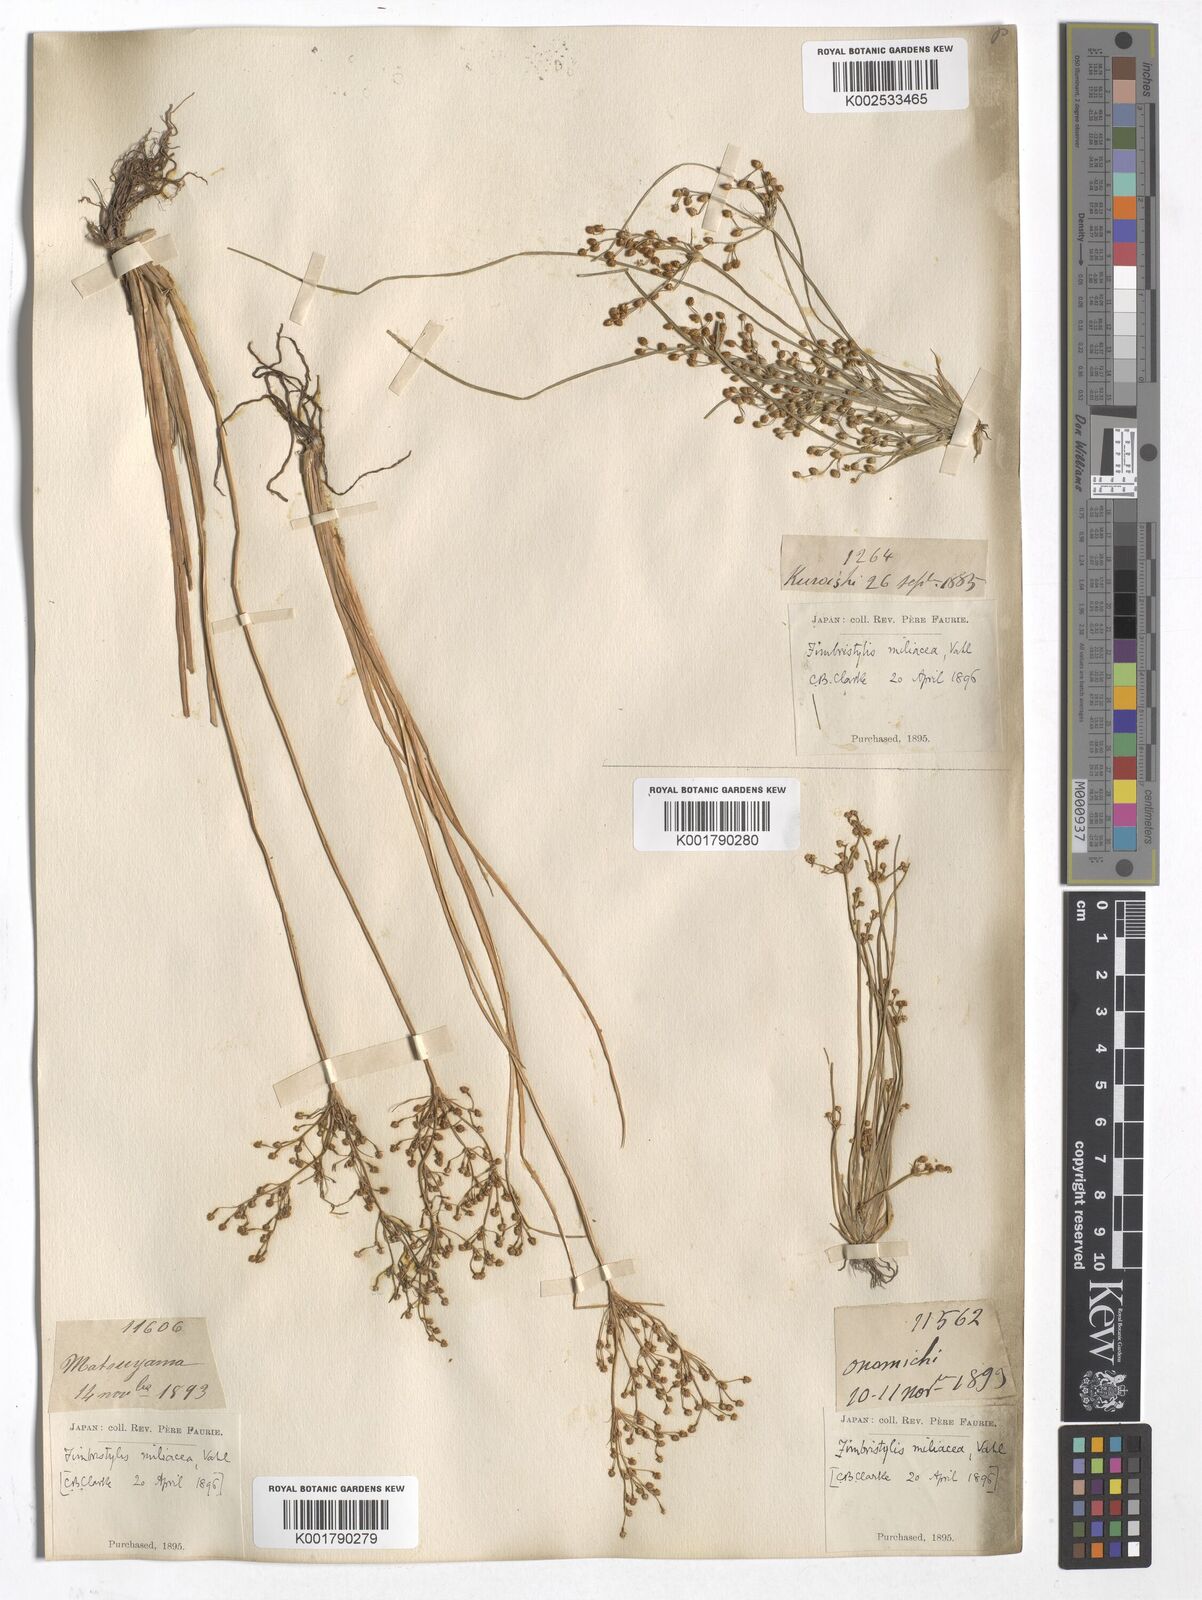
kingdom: Plantae
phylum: Tracheophyta
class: Liliopsida
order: Poales
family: Cyperaceae
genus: Fimbristylis
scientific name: Fimbristylis quinquangularis
